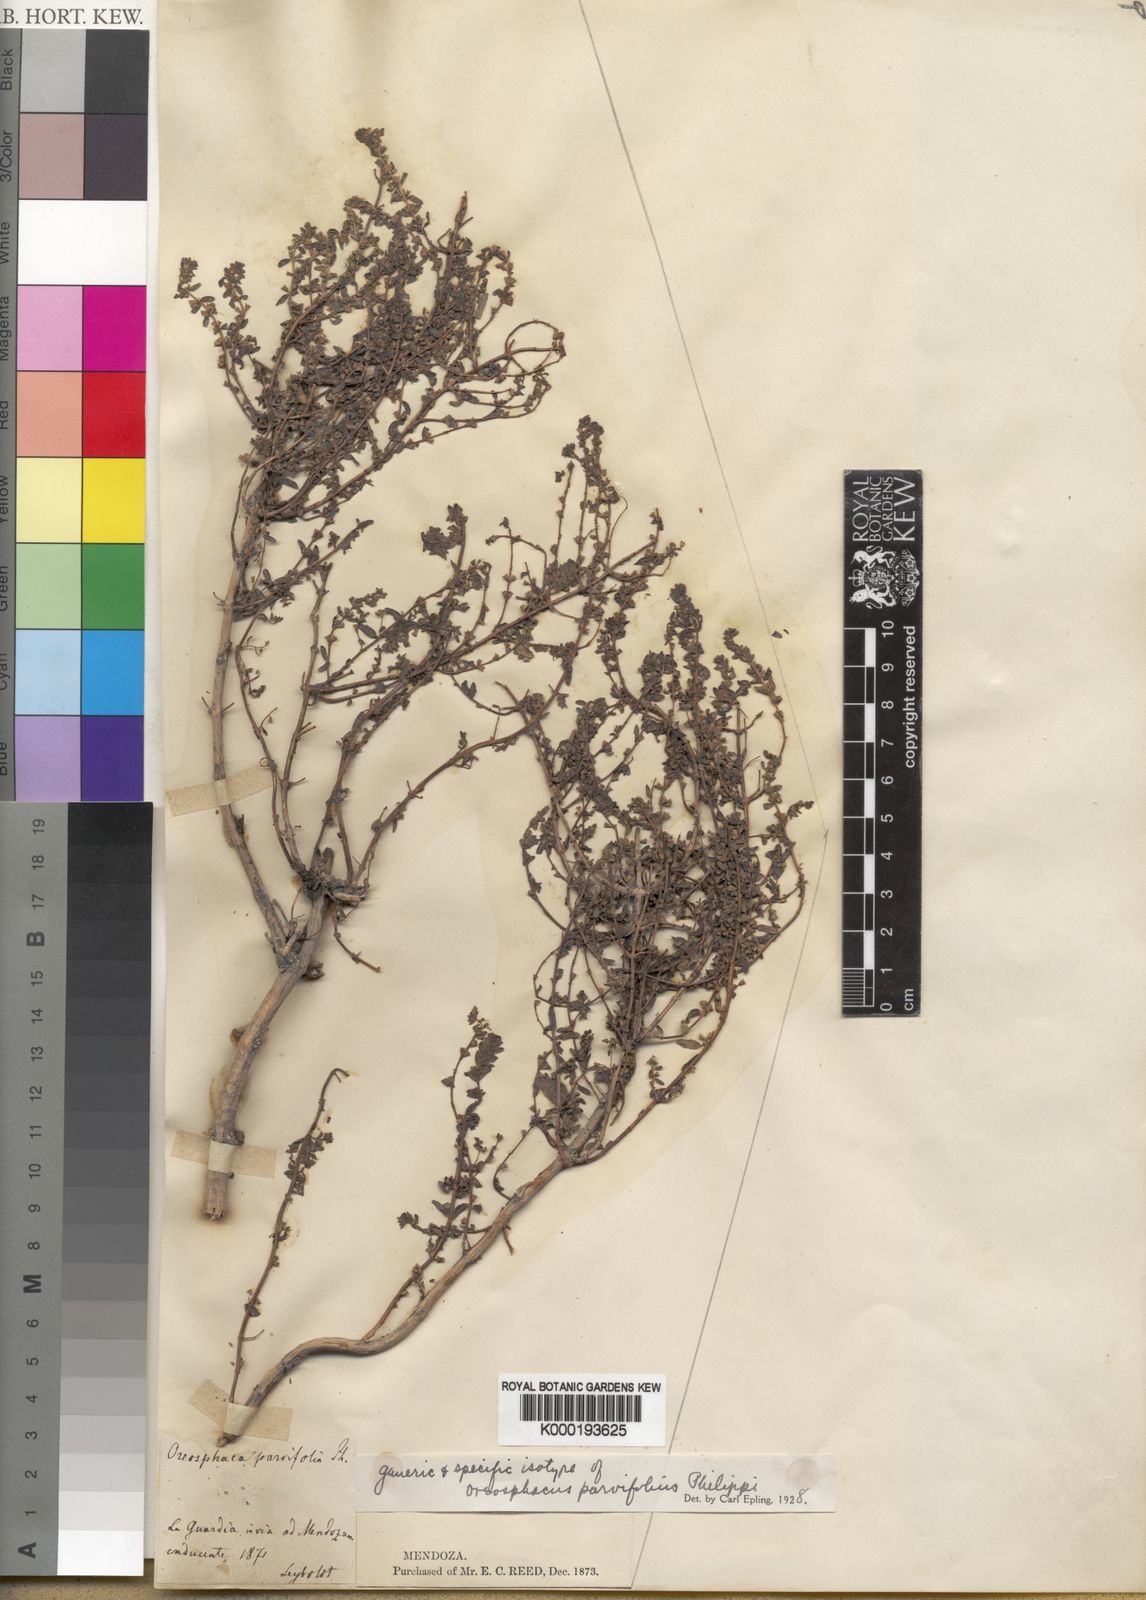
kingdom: Plantae
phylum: Tracheophyta
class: Magnoliopsida
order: Lamiales
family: Lamiaceae
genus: Clinopodium
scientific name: Clinopodium gilliesii
